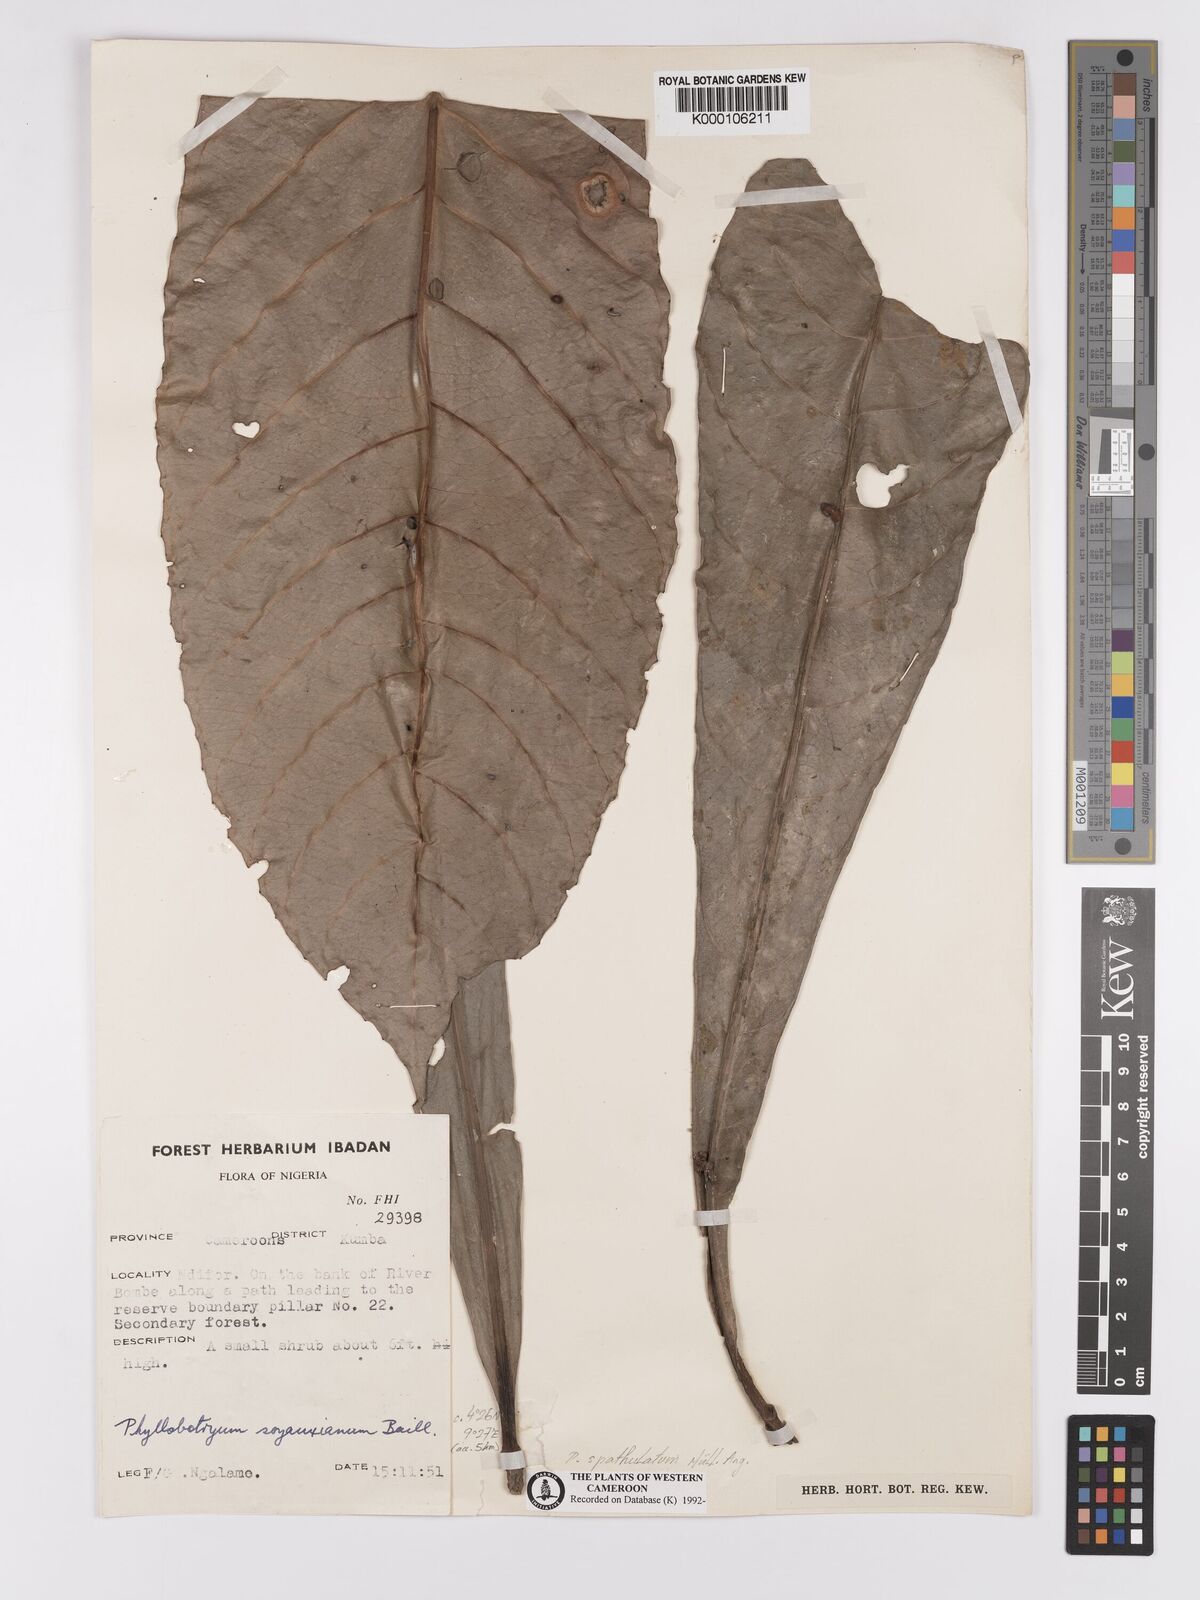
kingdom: Plantae
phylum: Tracheophyta
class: Magnoliopsida
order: Malpighiales
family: Salicaceae
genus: Phyllobotryon
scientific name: Phyllobotryon
